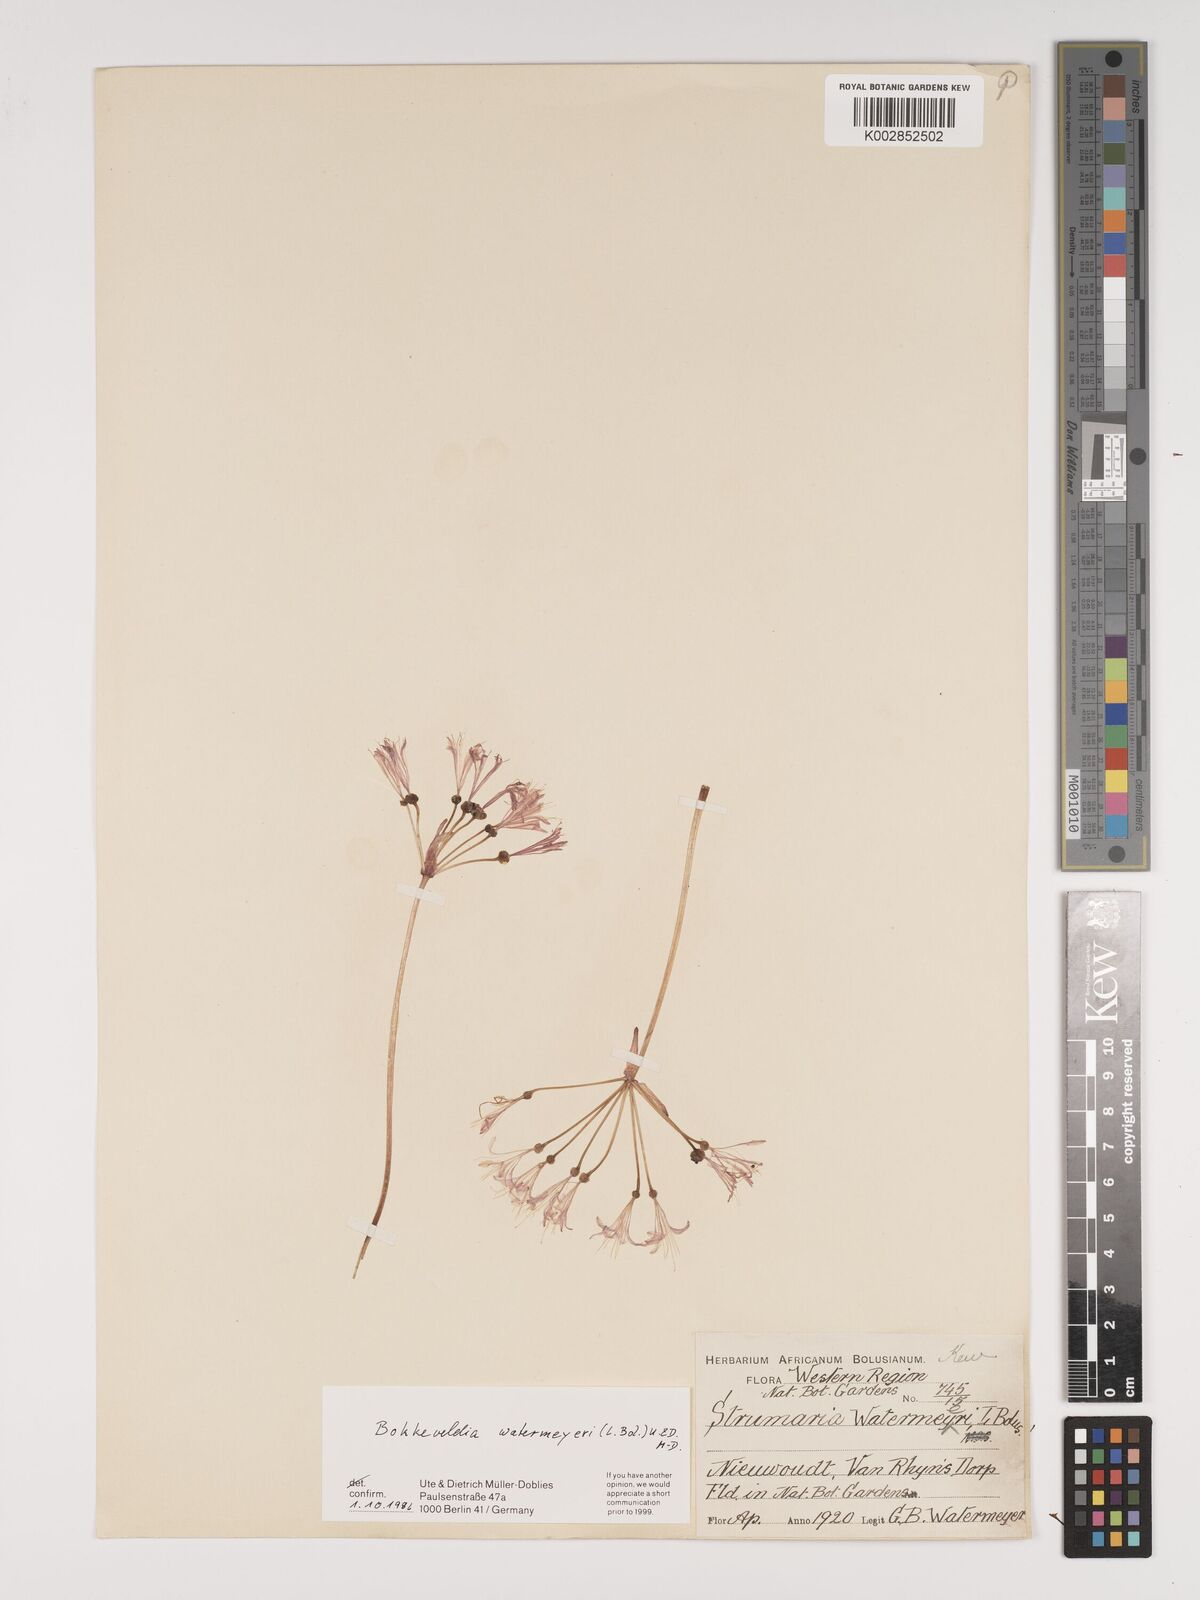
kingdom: Plantae
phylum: Tracheophyta
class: Liliopsida
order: Asparagales
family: Amaryllidaceae
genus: Strumaria
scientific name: Strumaria watermeyeri
